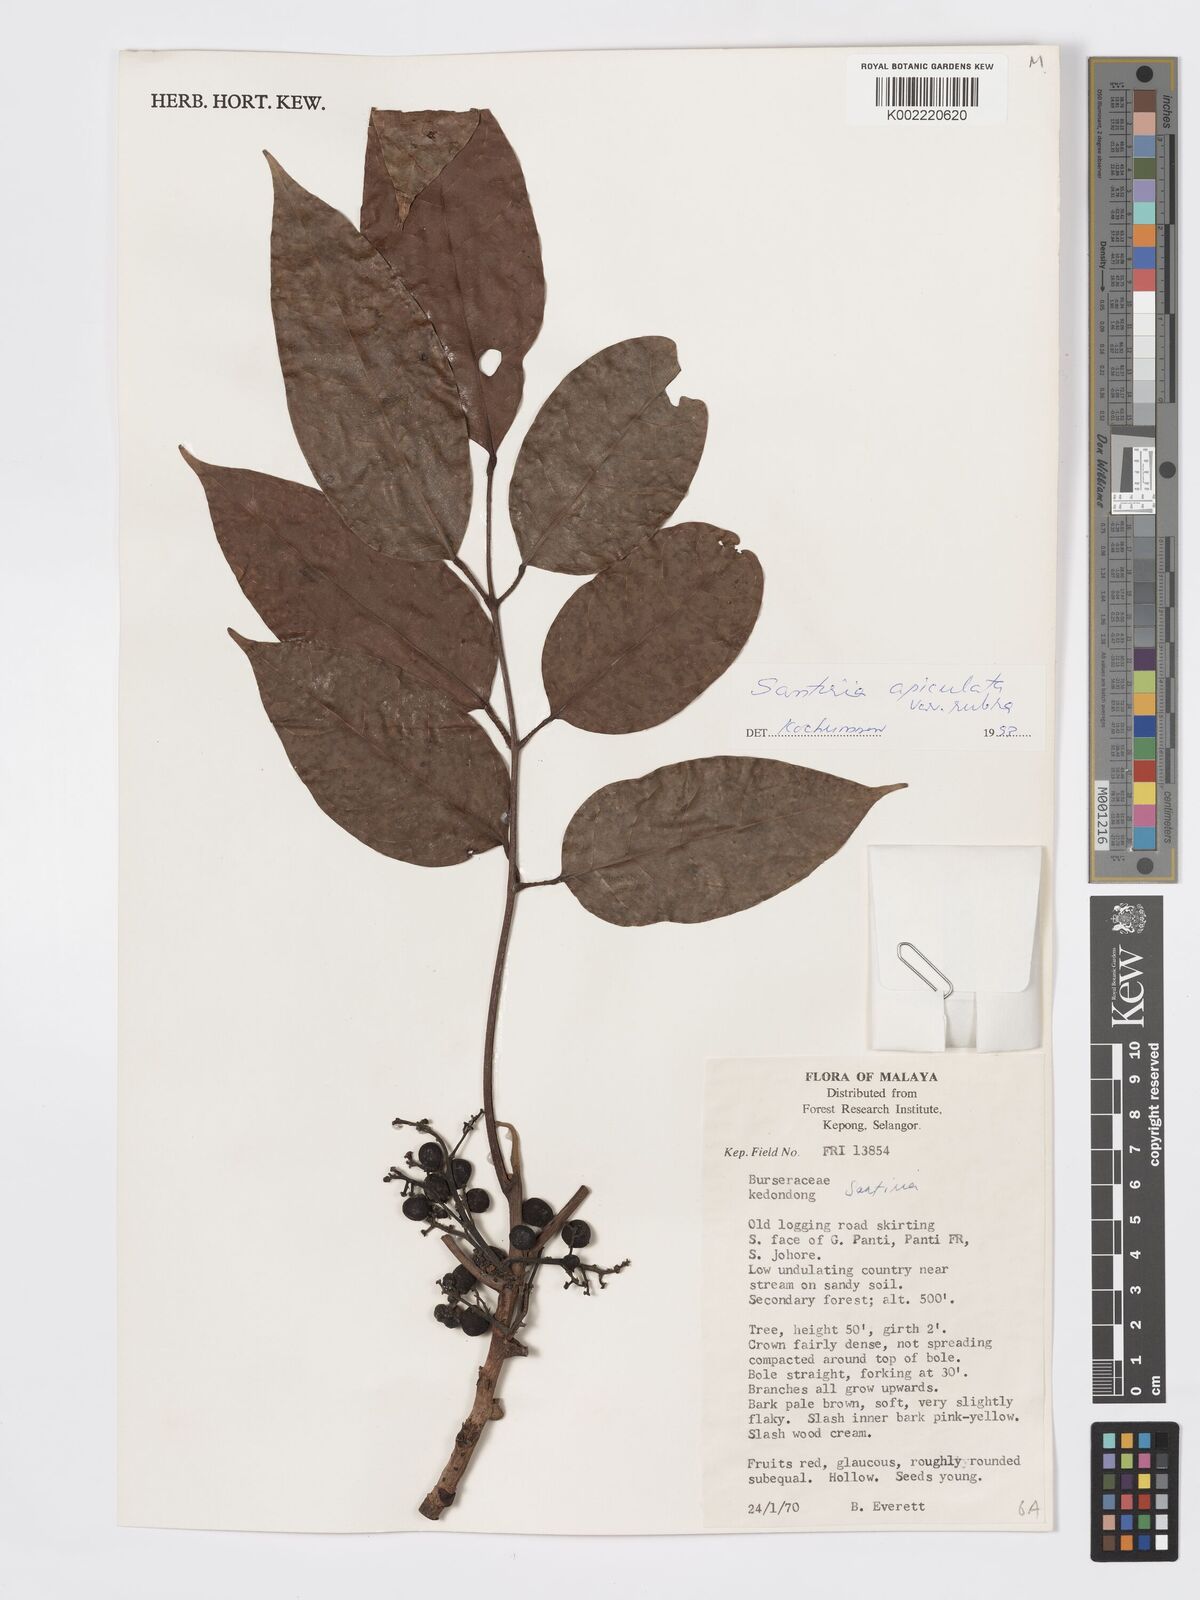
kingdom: Plantae
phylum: Tracheophyta
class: Magnoliopsida
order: Sapindales
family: Burseraceae
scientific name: Burseraceae
